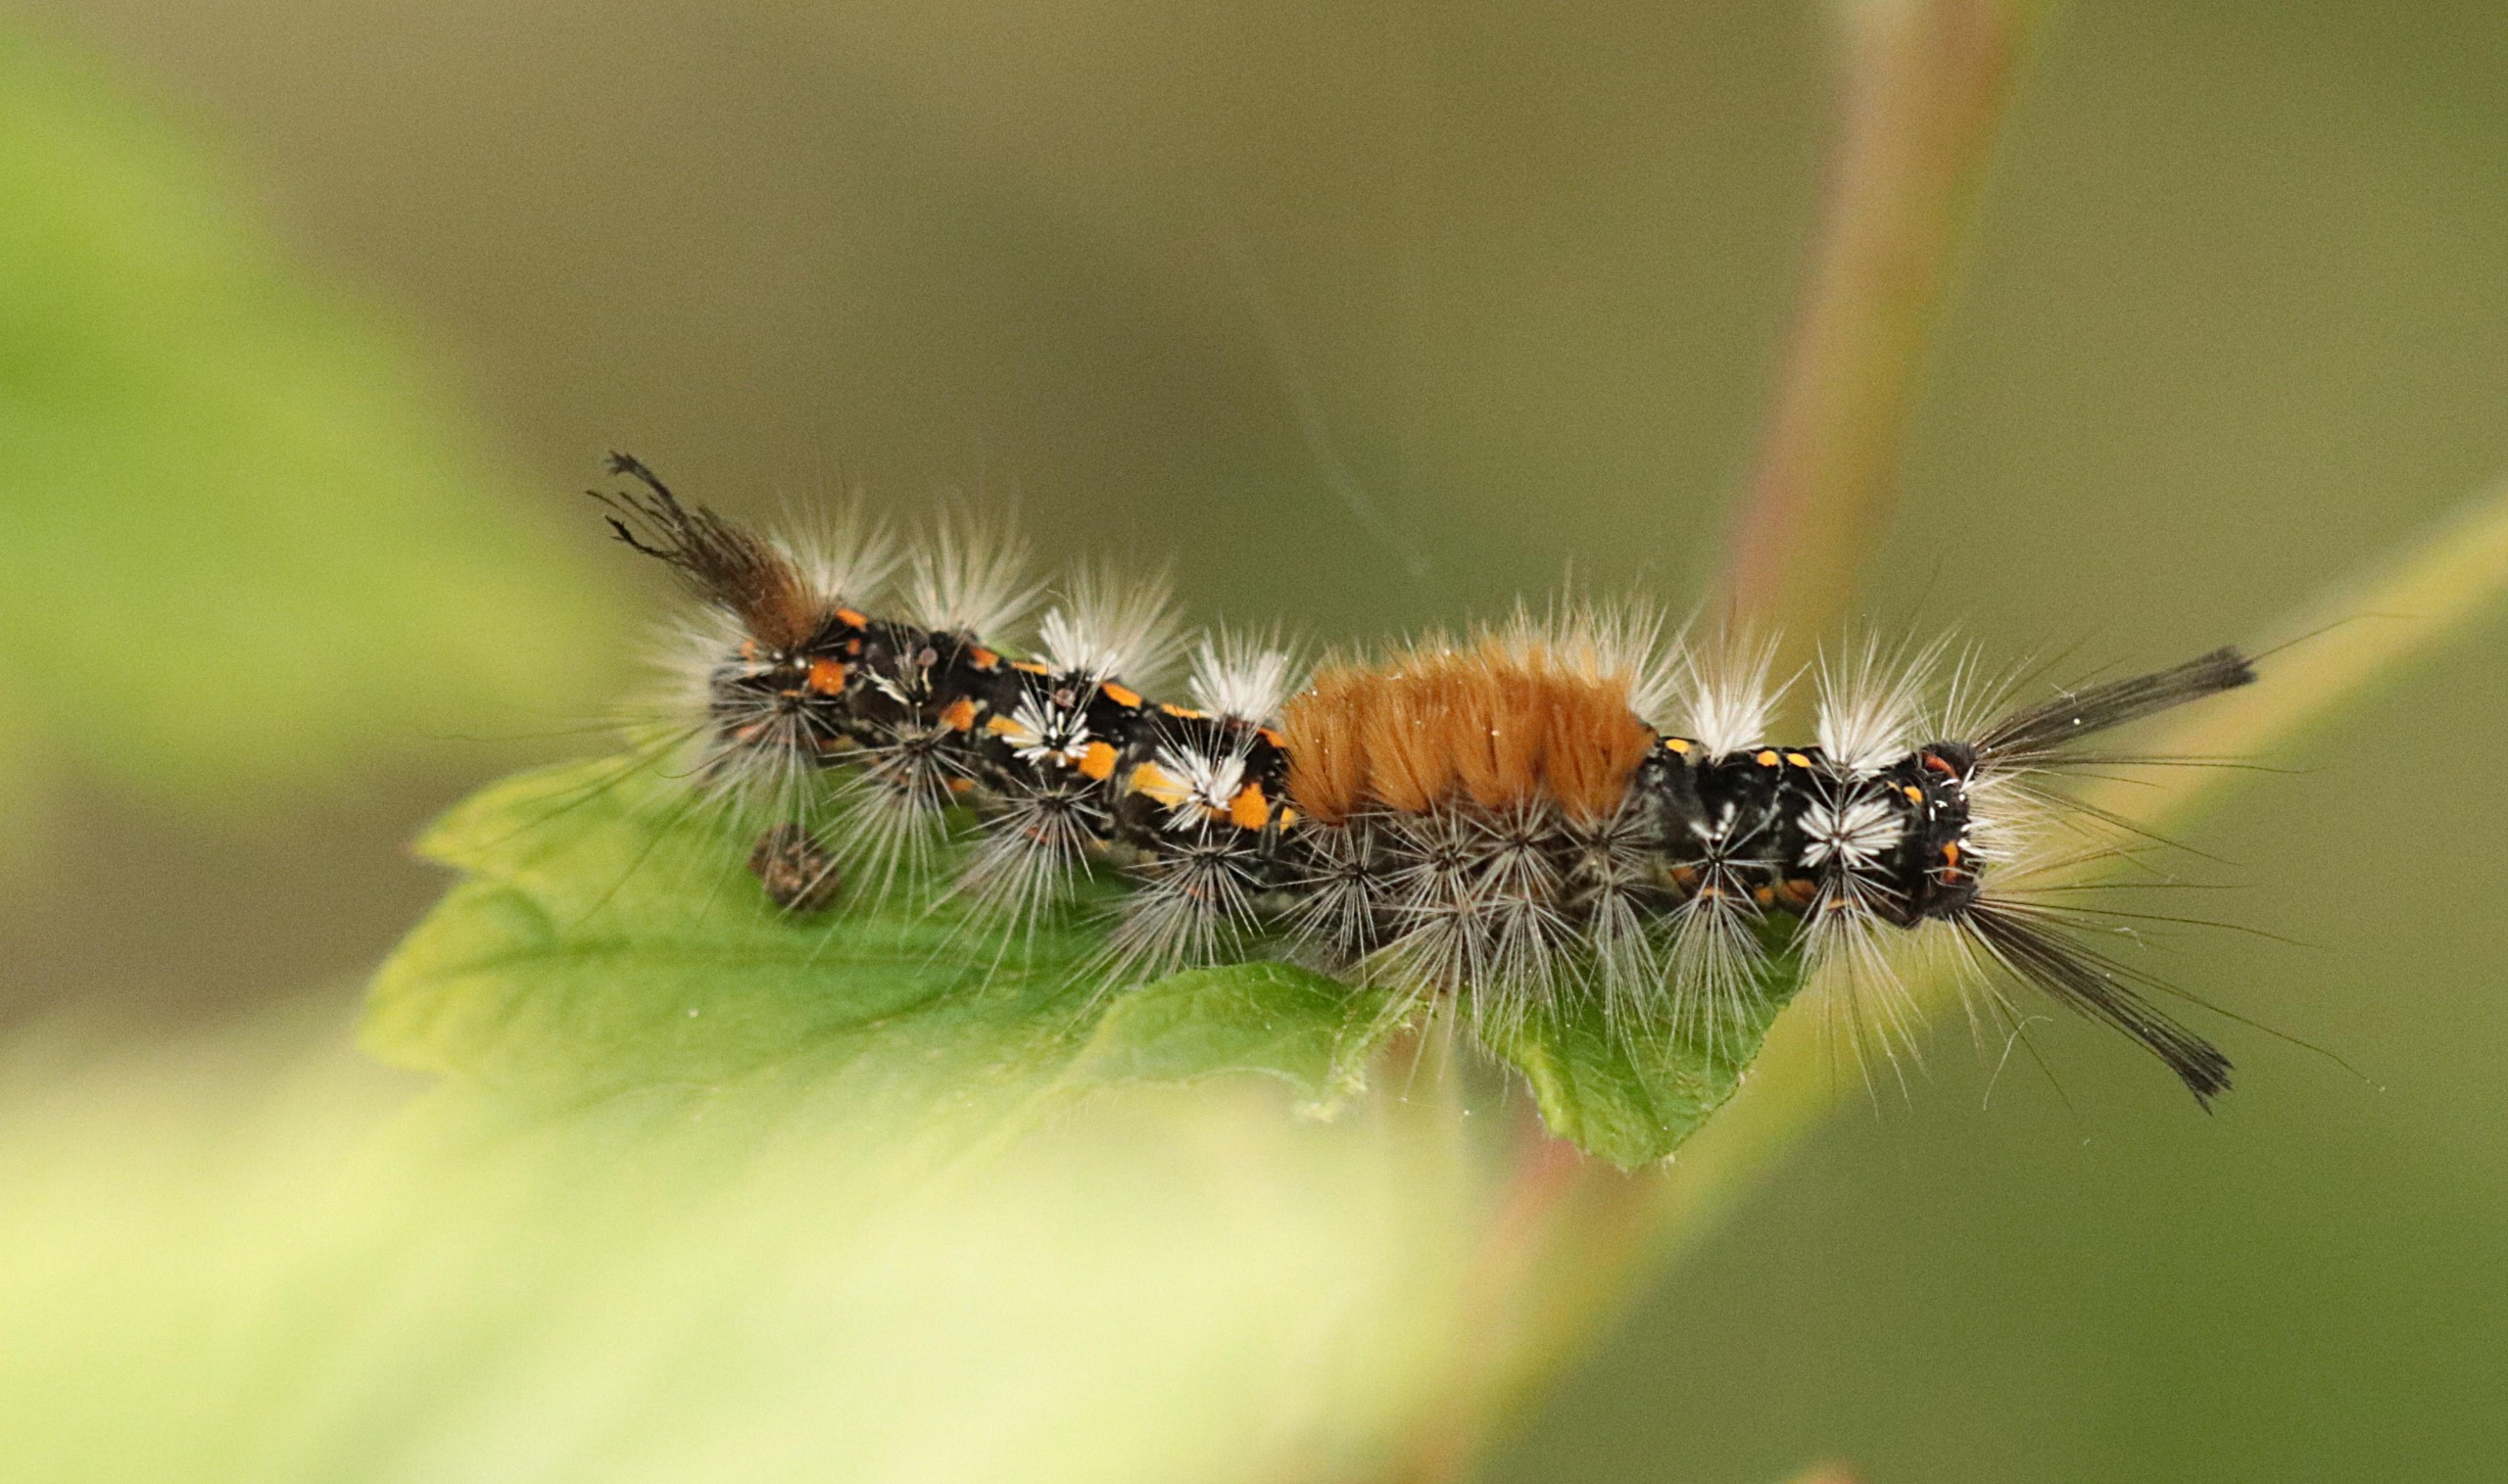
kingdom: Animalia
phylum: Arthropoda
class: Insecta
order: Lepidoptera
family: Erebidae
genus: Orgyia
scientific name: Orgyia recens
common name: Pragtpenselspinder
